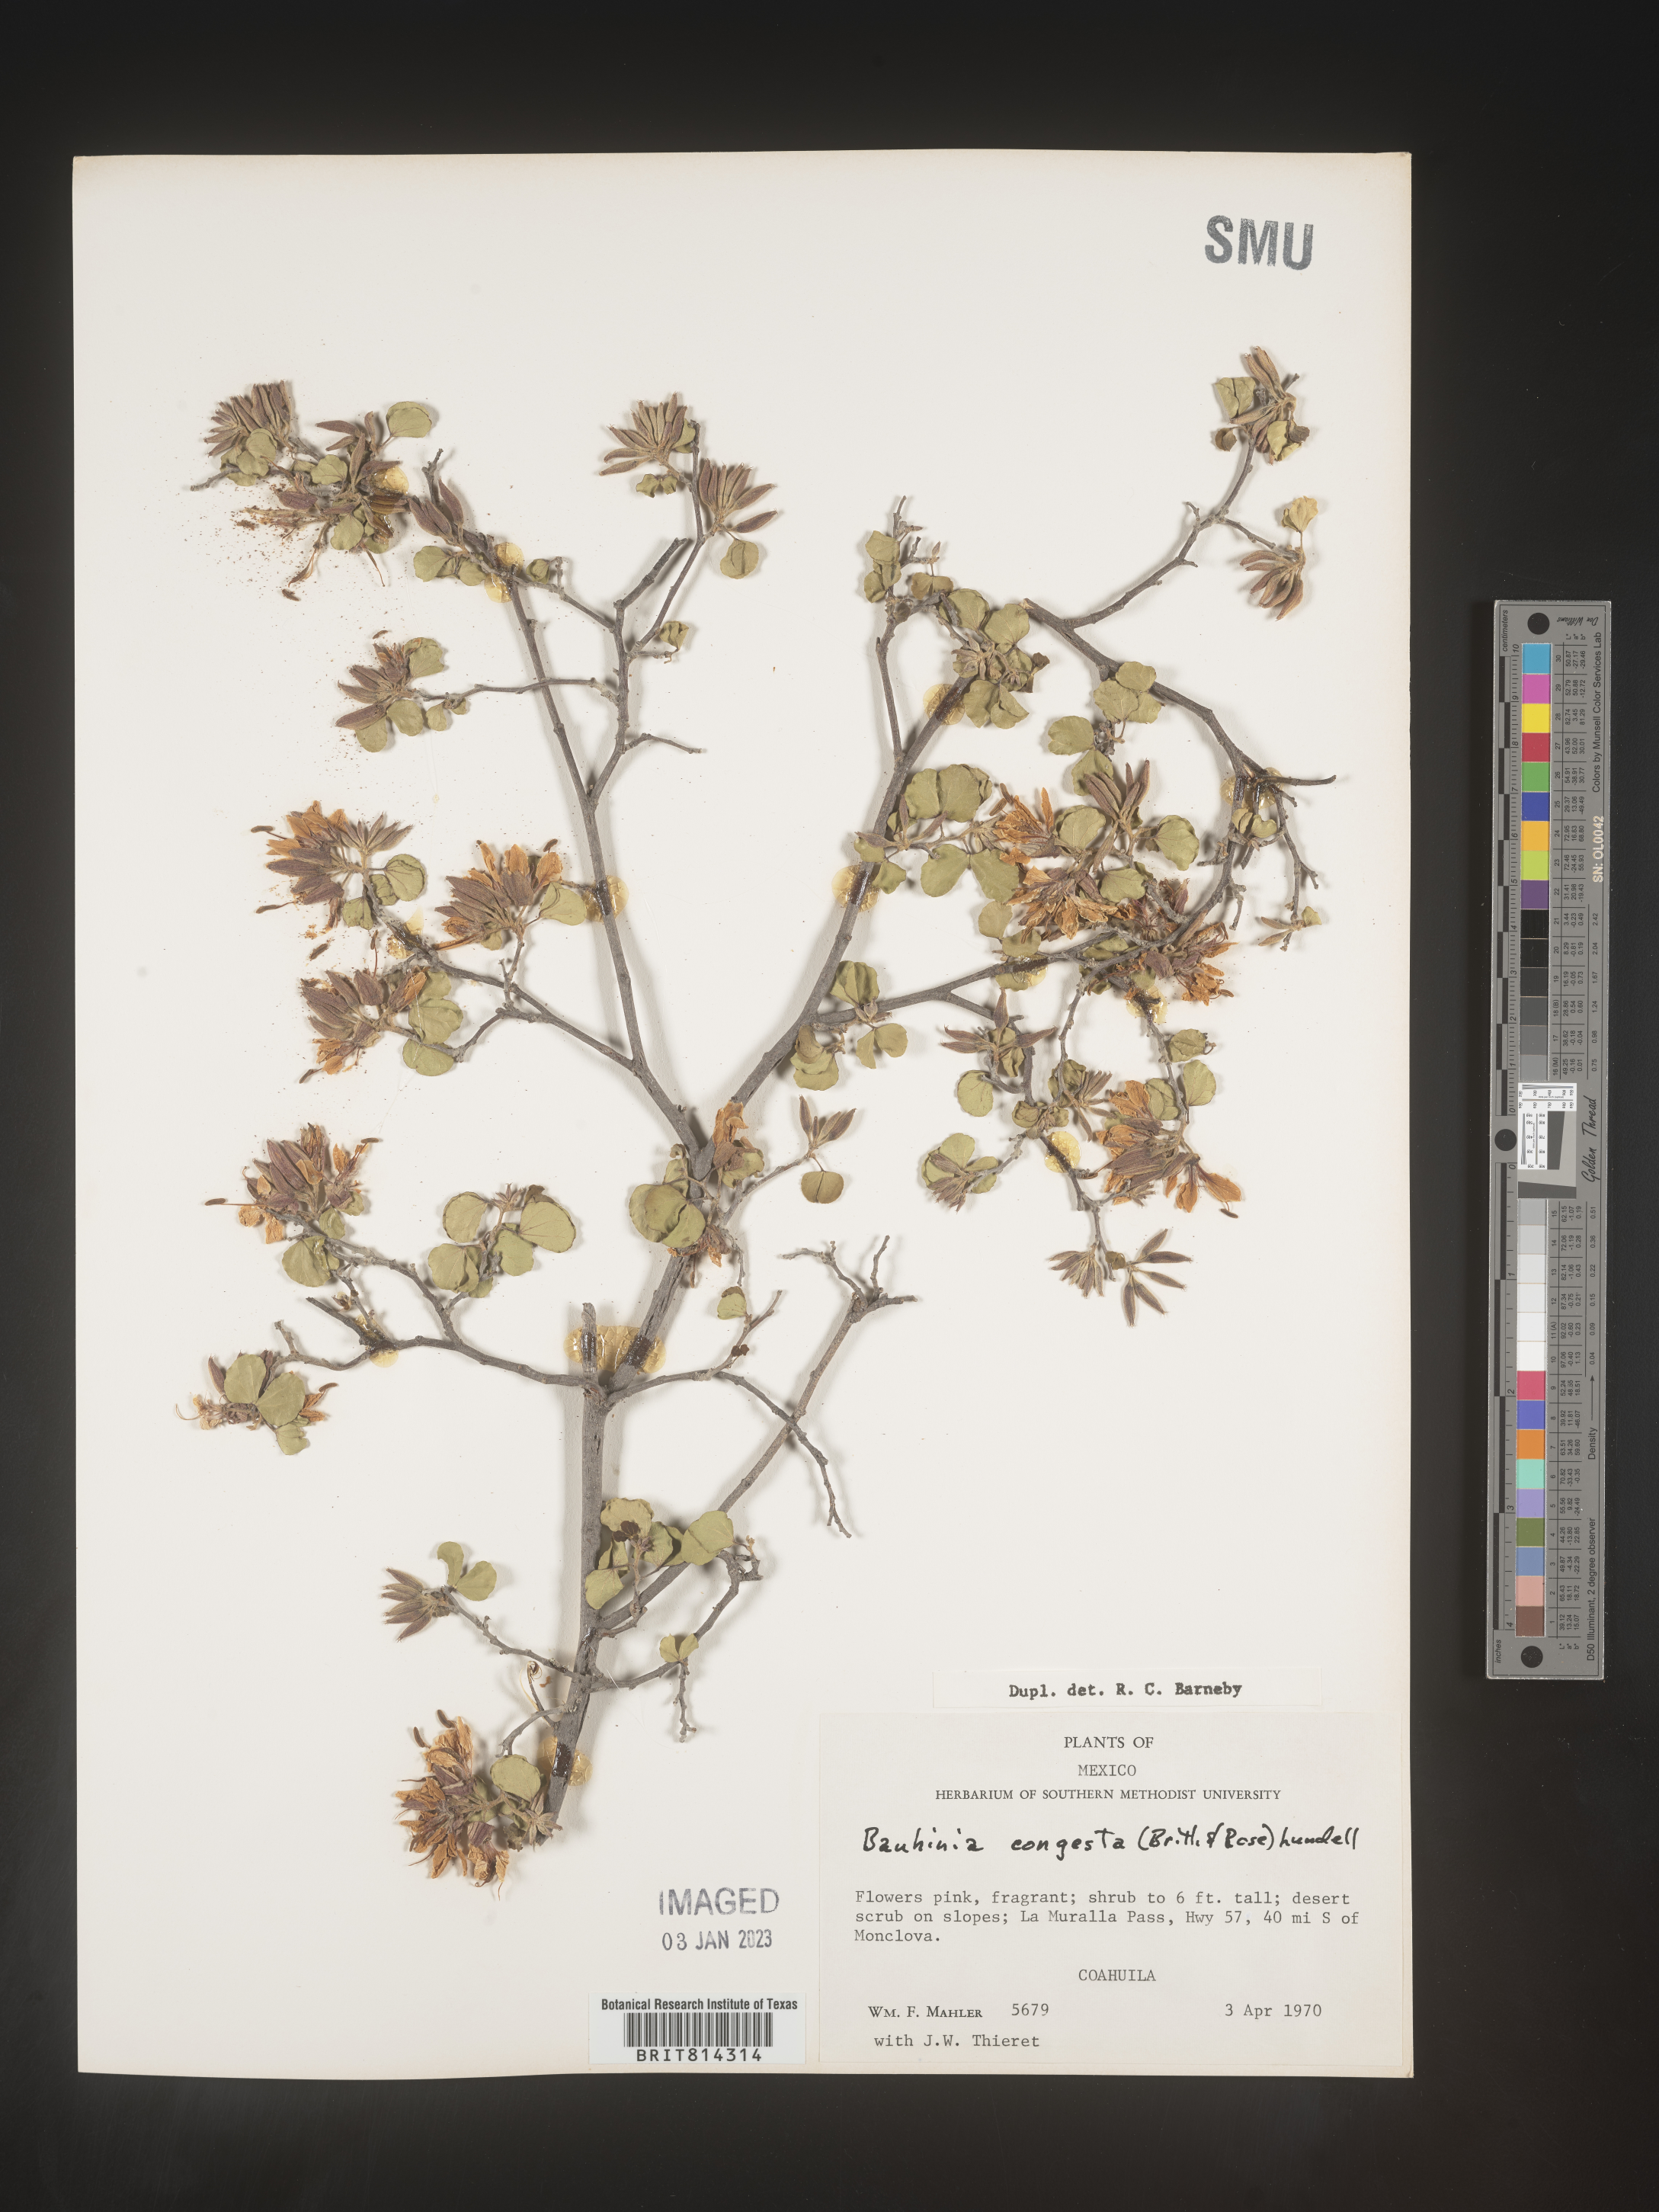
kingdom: Plantae
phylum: Tracheophyta
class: Magnoliopsida
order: Fabales
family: Fabaceae
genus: Bauhinia
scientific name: Bauhinia
